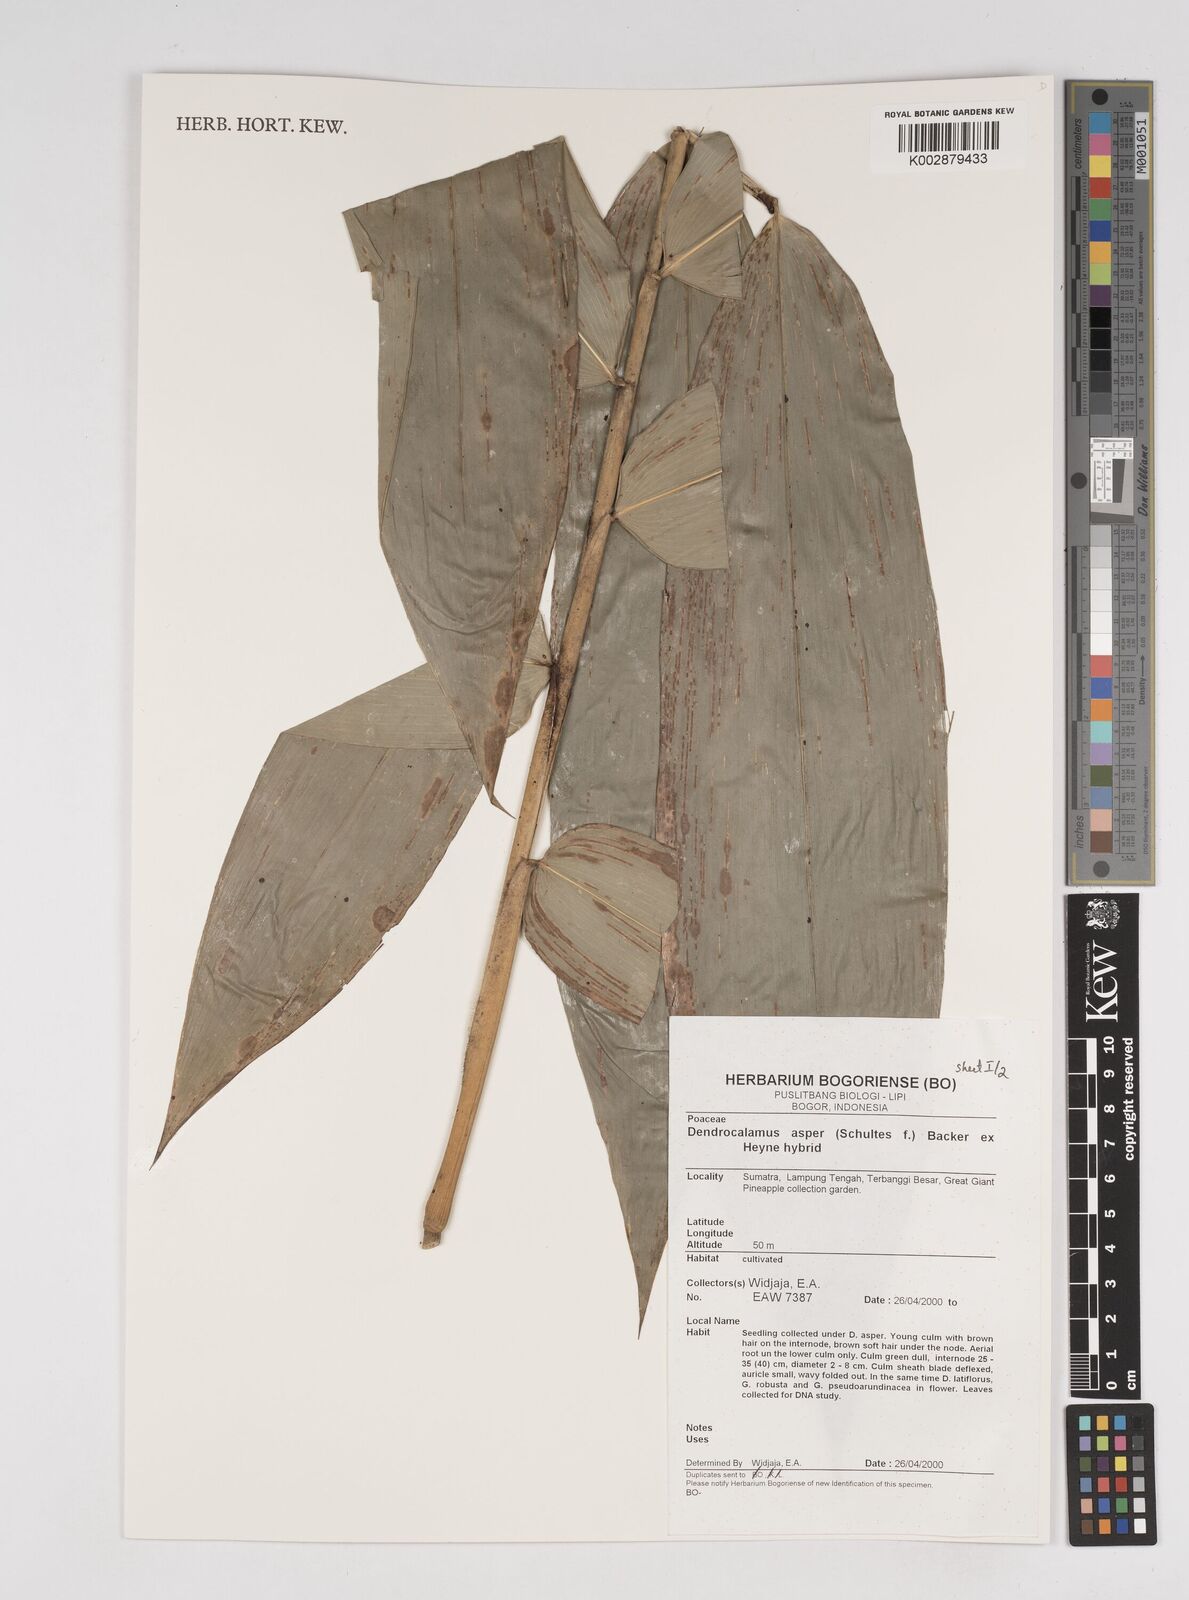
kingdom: Plantae
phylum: Tracheophyta
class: Liliopsida
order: Poales
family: Poaceae
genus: Dendrocalamus
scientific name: Dendrocalamus asper
